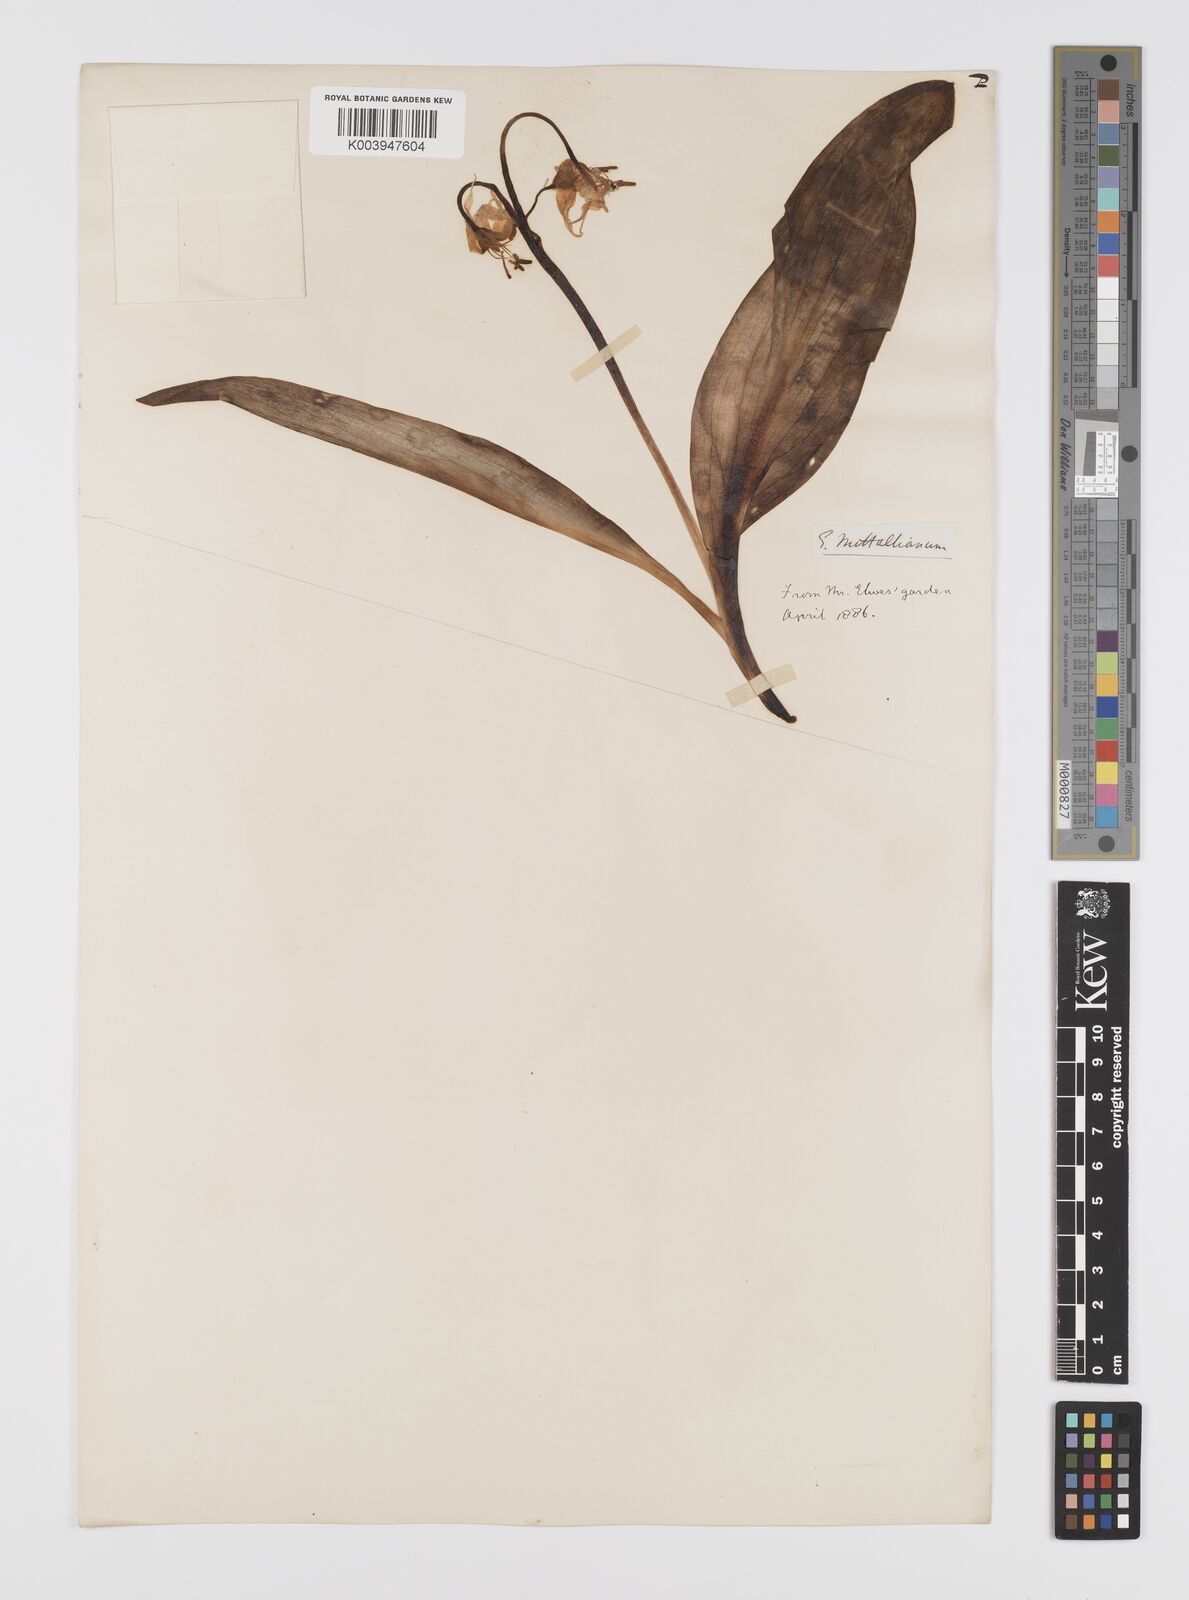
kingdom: Plantae
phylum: Tracheophyta
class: Liliopsida
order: Liliales
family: Liliaceae
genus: Erythronium
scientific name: Erythronium grandiflorum
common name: Avalanche-lily
